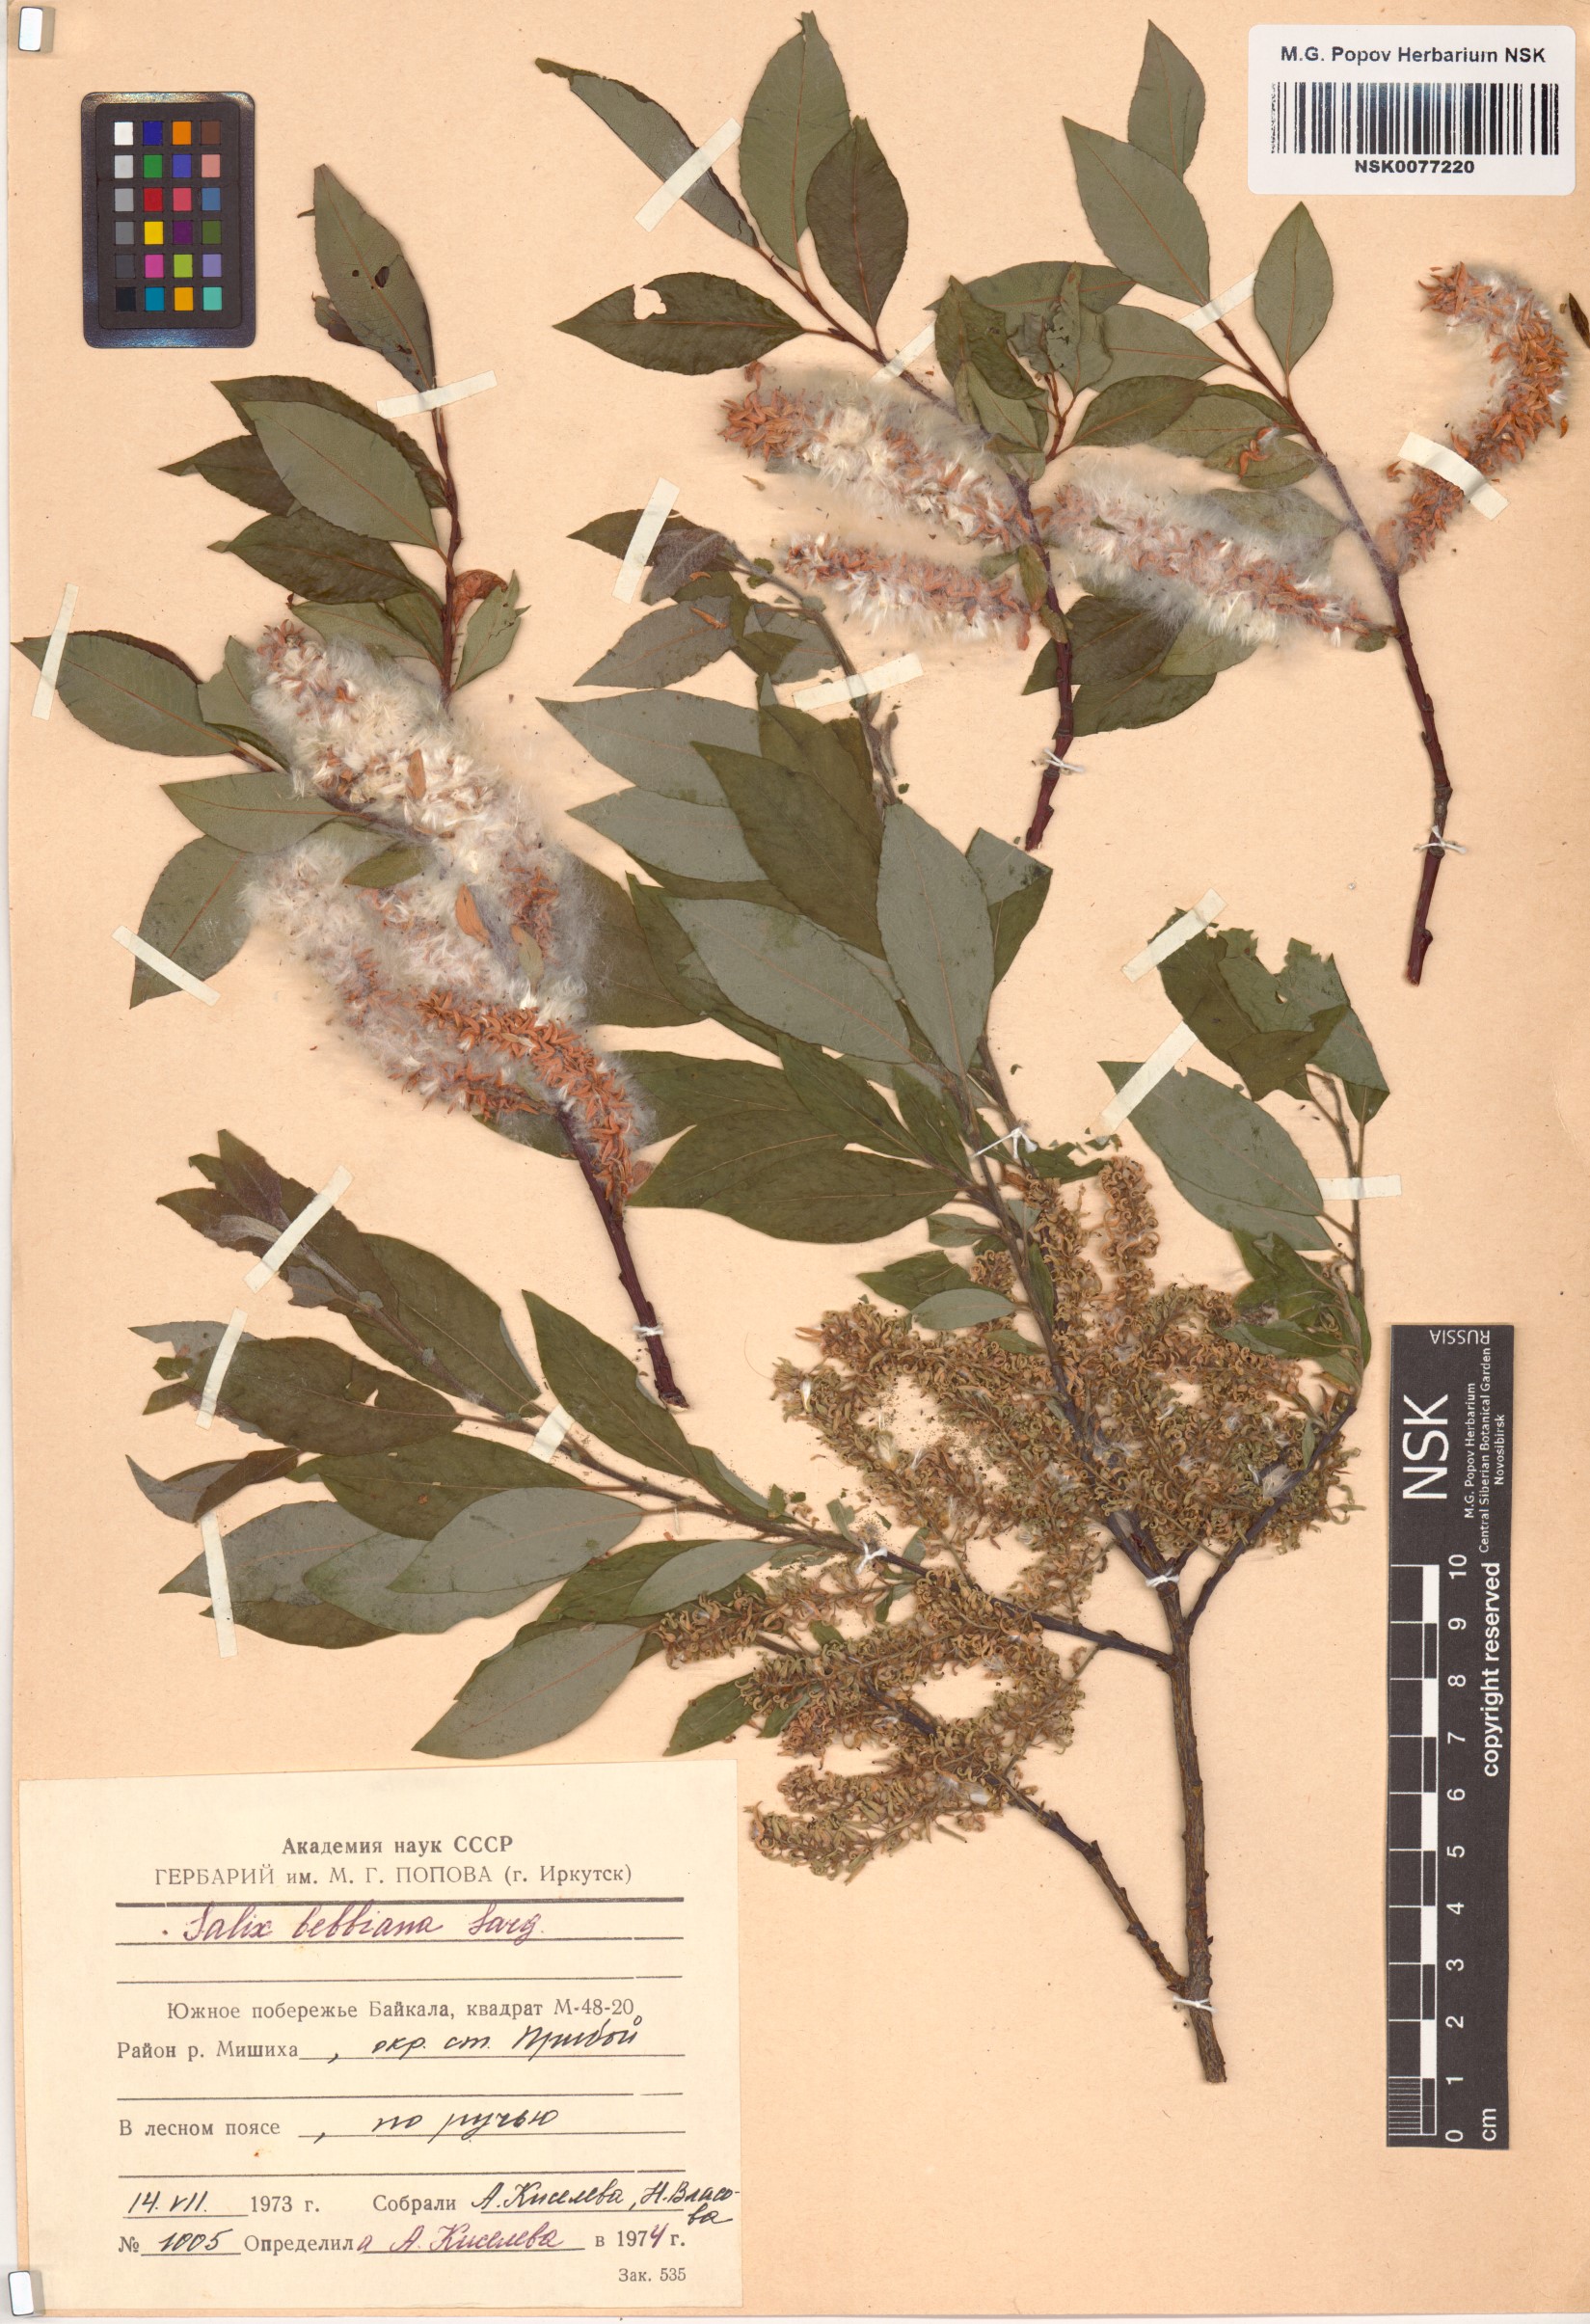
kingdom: Plantae
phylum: Tracheophyta
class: Magnoliopsida
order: Malpighiales
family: Salicaceae
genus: Salix
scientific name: Salix bebbiana
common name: Bebb's willow
